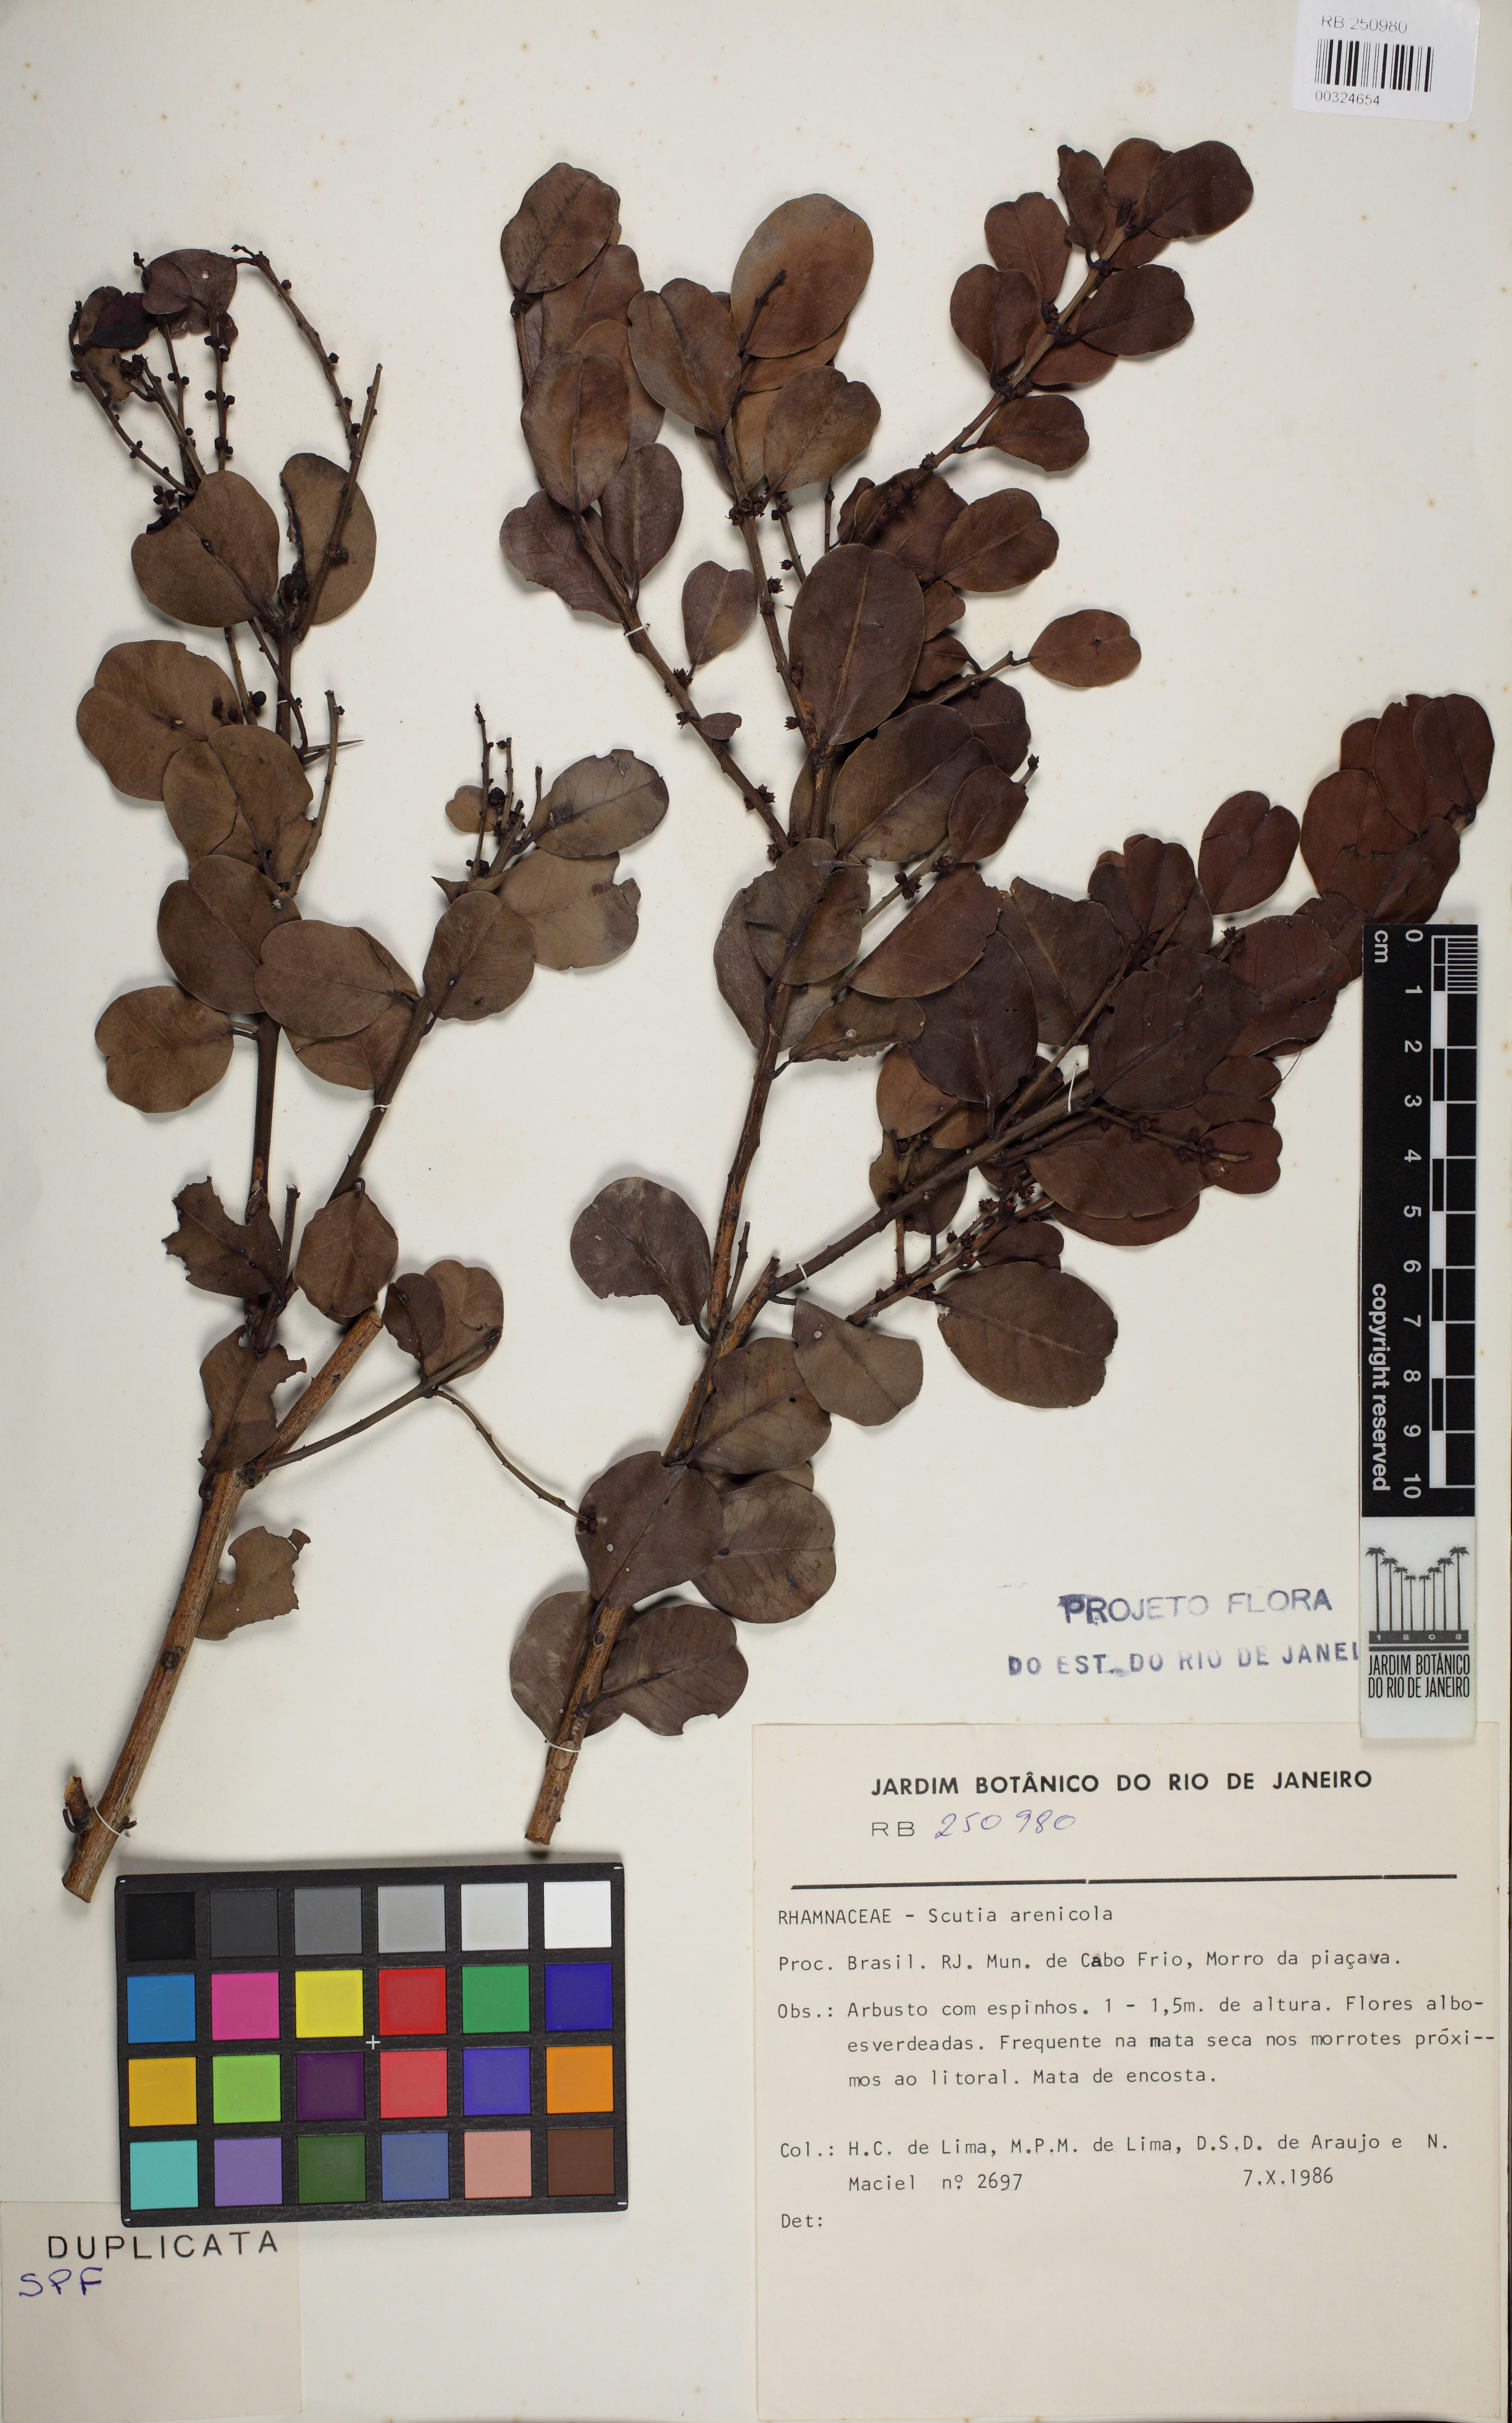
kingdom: Plantae
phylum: Tracheophyta
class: Magnoliopsida
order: Rosales
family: Rhamnaceae
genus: Scutia
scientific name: Scutia arenicola
